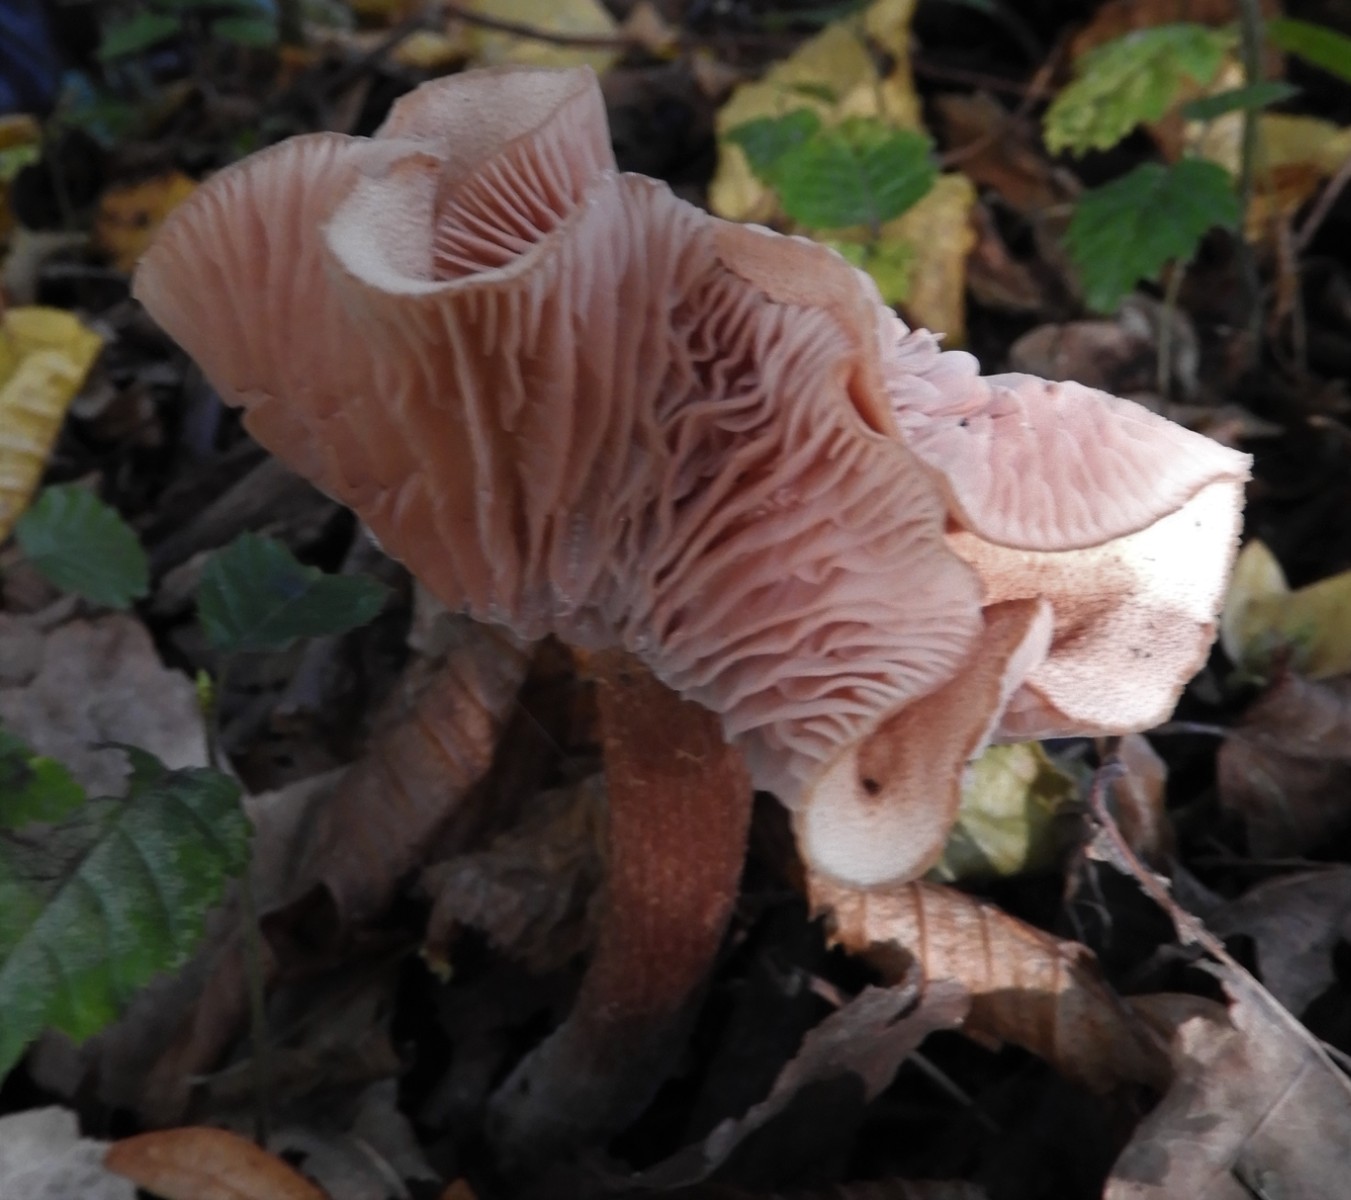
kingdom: Fungi
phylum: Basidiomycota
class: Agaricomycetes
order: Agaricales
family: Hydnangiaceae
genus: Laccaria
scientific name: Laccaria proxima
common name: stor ametysthat
